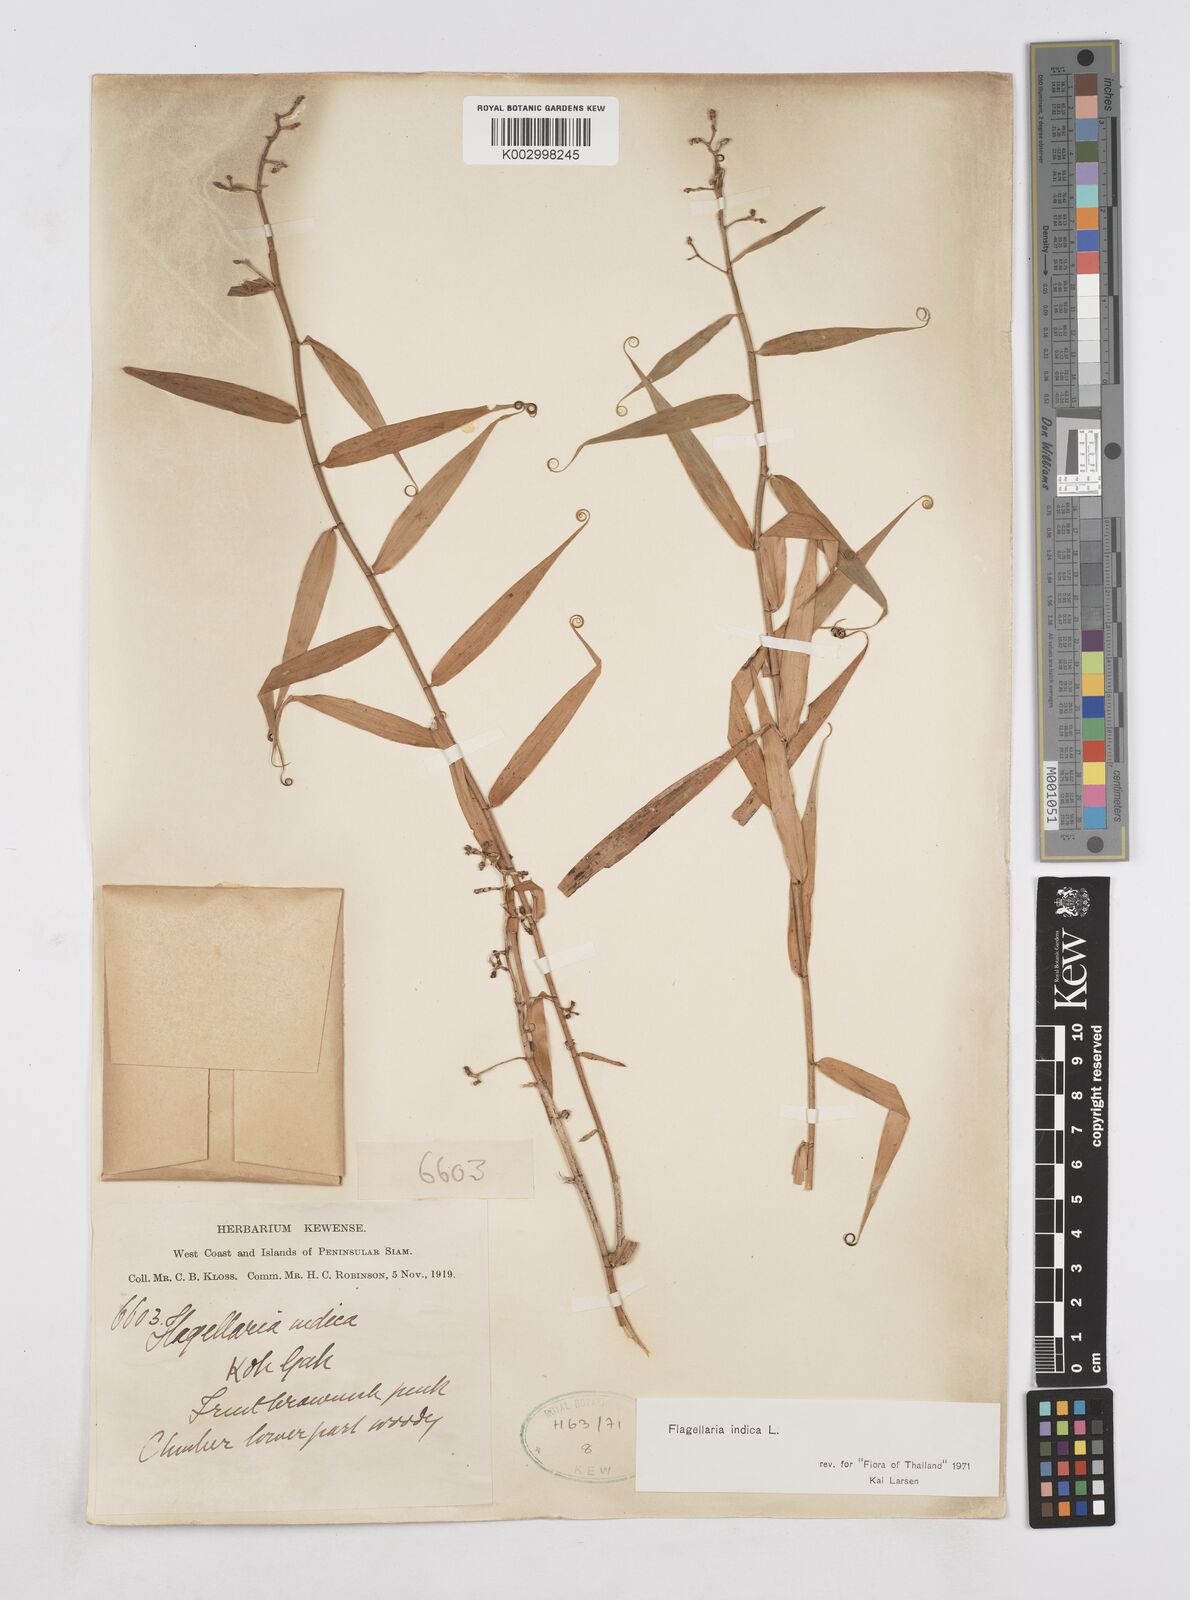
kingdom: Plantae
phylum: Tracheophyta
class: Liliopsida
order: Poales
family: Flagellariaceae
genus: Flagellaria
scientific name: Flagellaria indica
